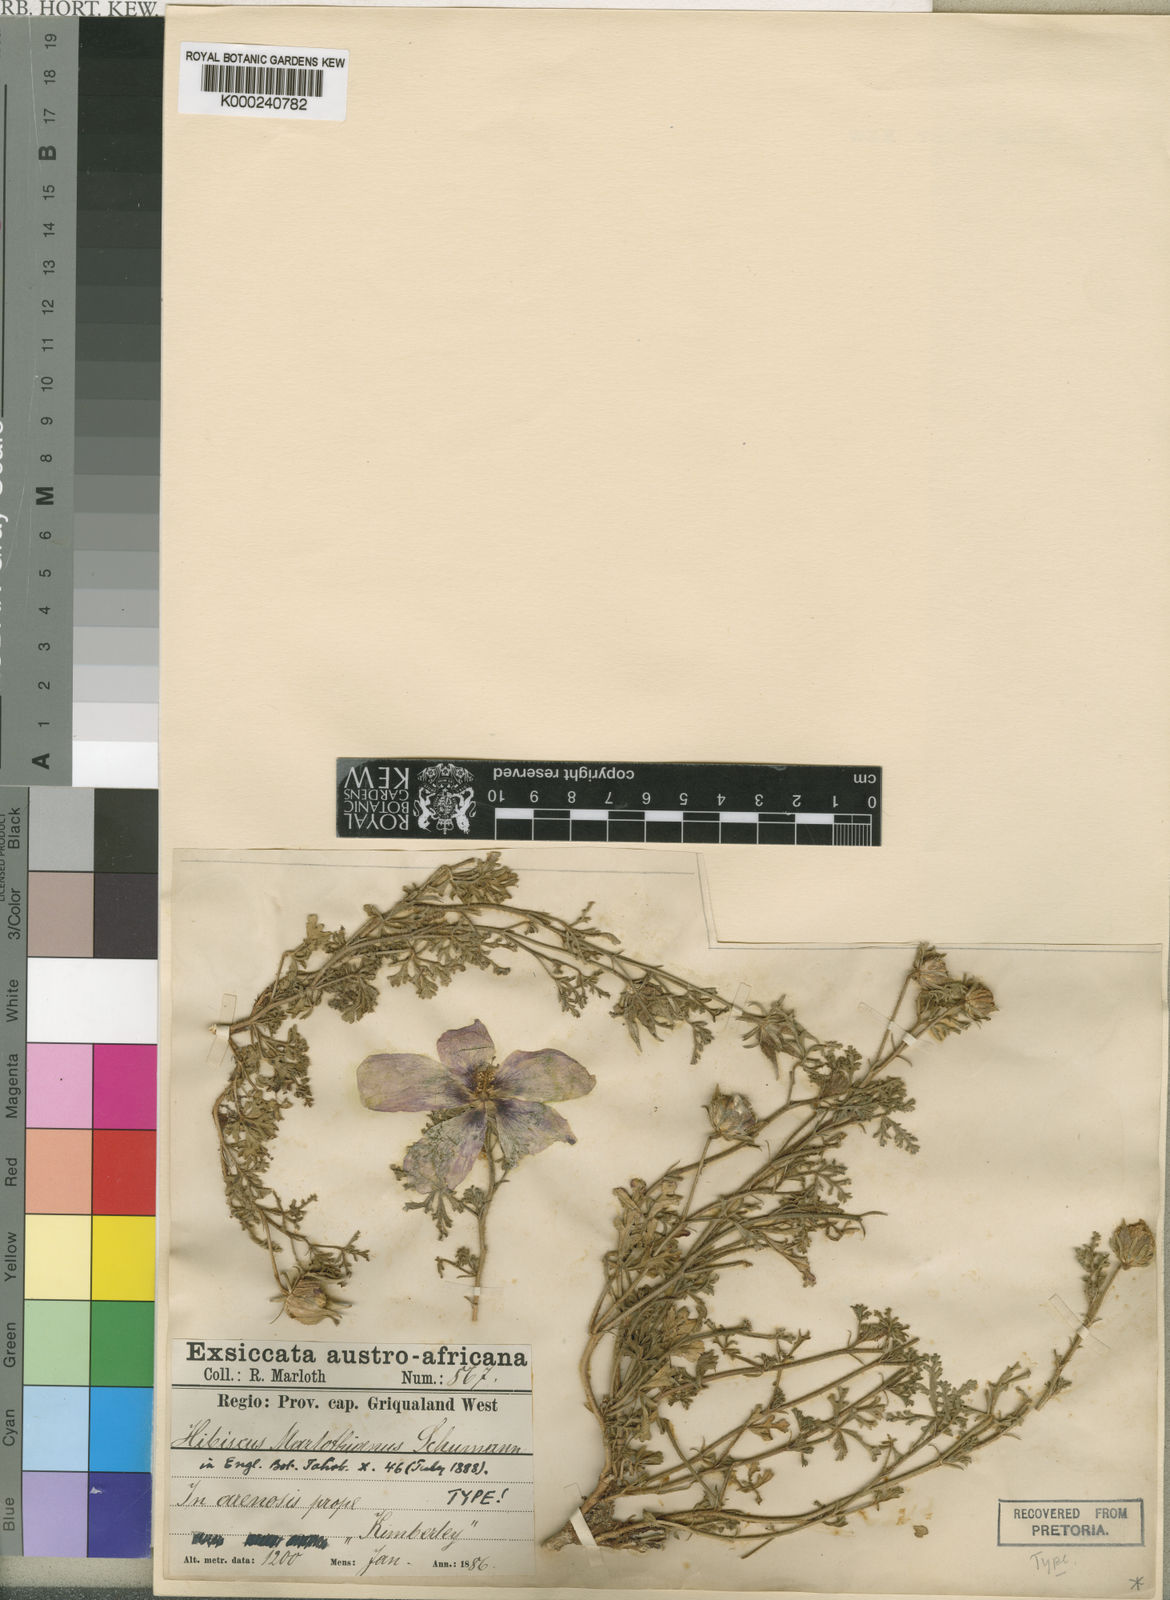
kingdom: Plantae
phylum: Tracheophyta
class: Magnoliopsida
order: Malvales
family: Malvaceae
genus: Hibiscus
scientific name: Hibiscus marlothianus
